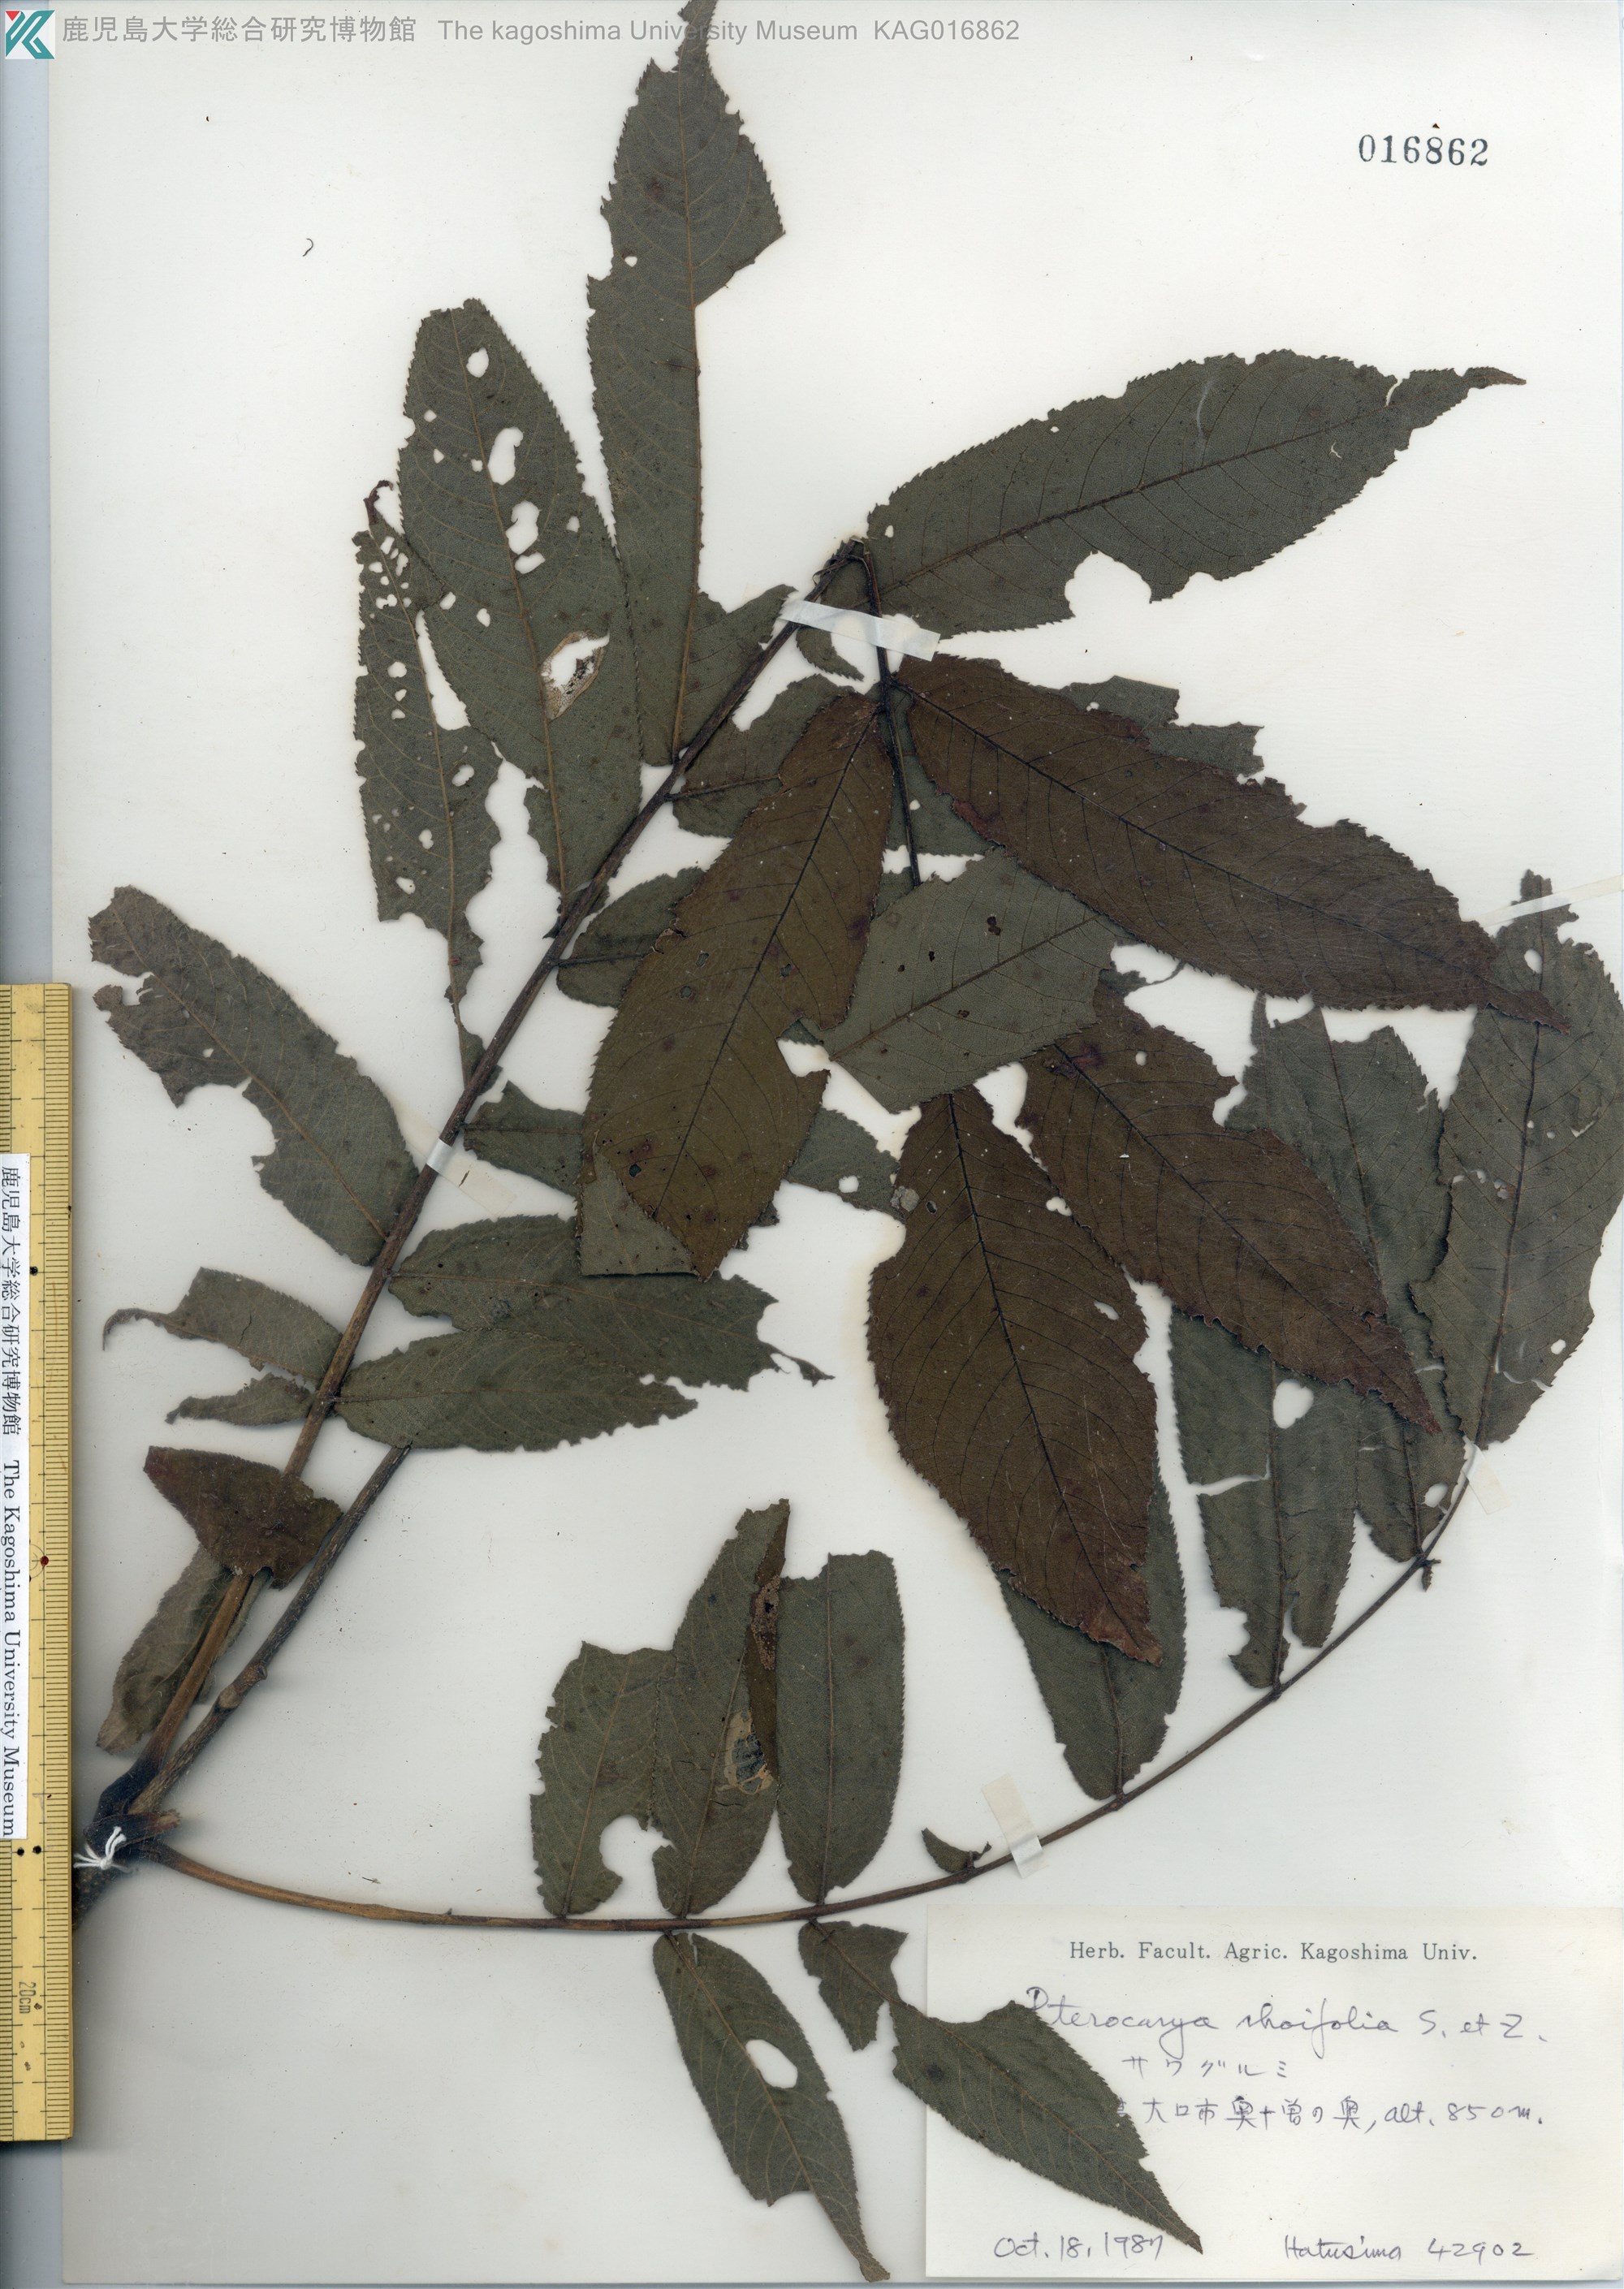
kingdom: Plantae
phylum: Tracheophyta
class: Magnoliopsida
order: Fagales
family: Juglandaceae
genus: Pterocarya
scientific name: Pterocarya rhoifolia
